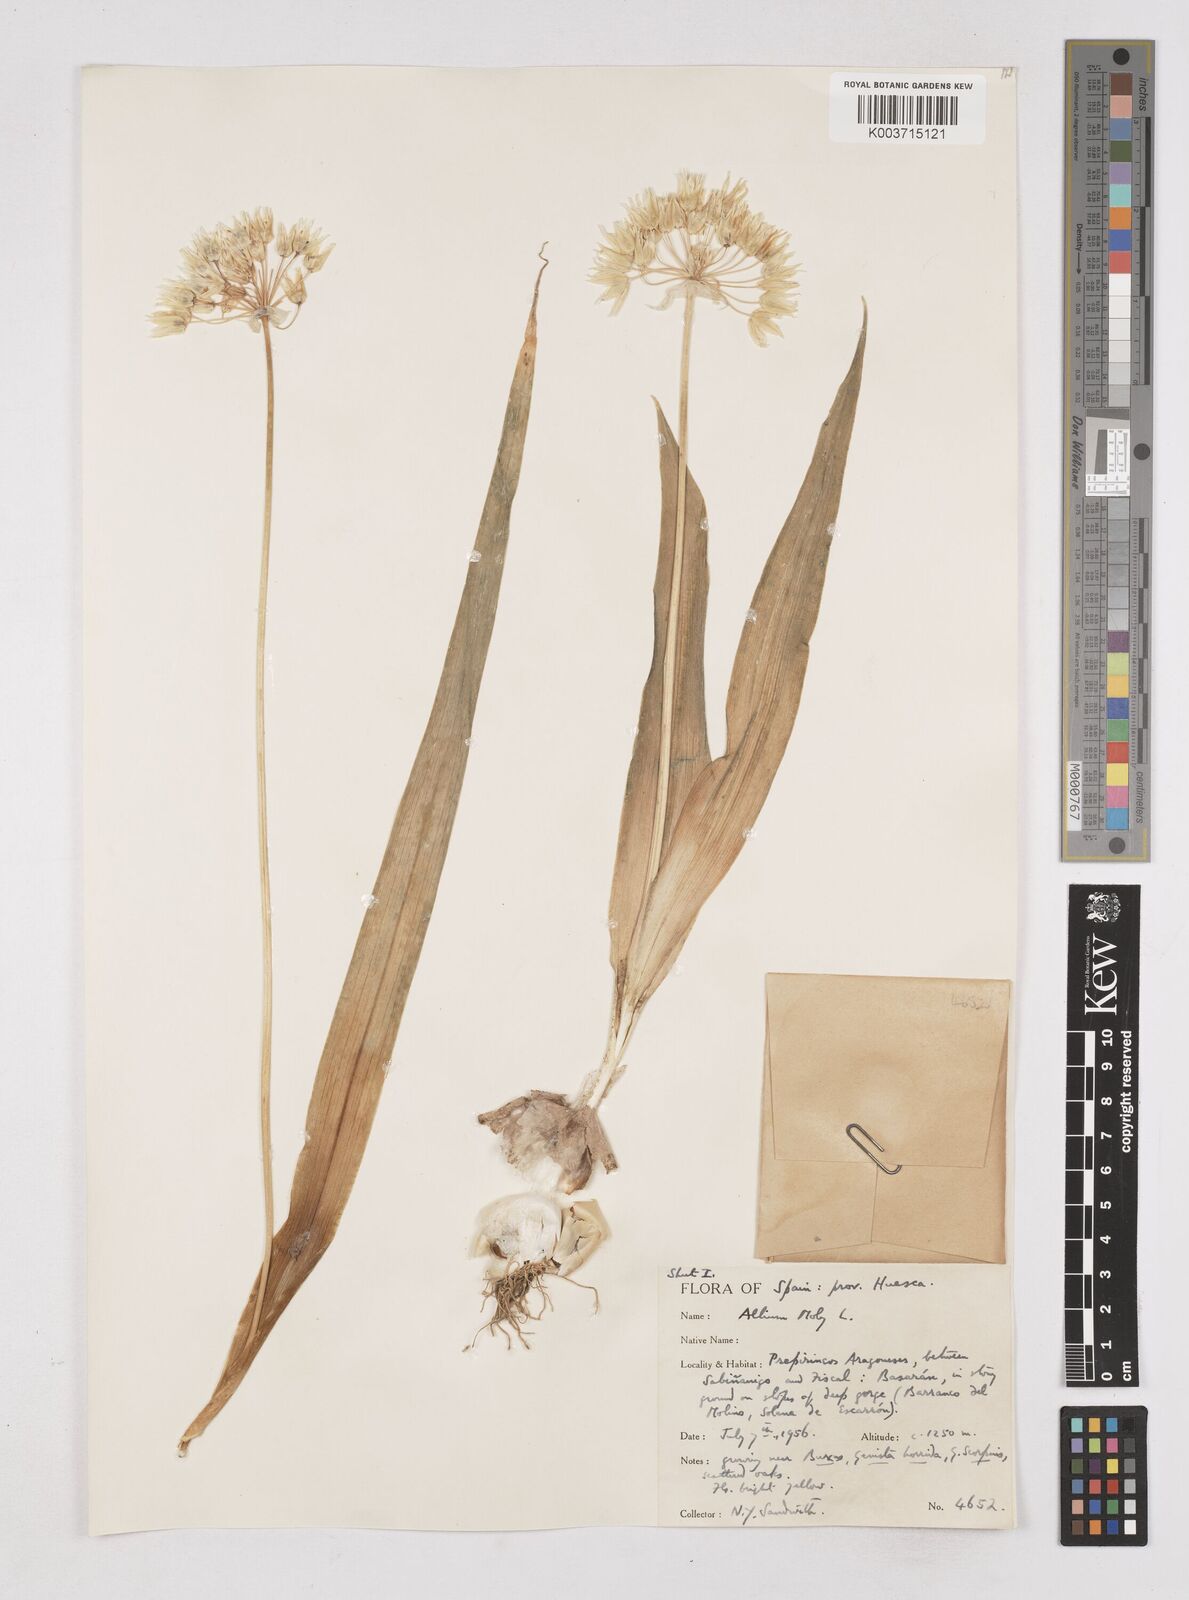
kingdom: Plantae
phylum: Tracheophyta
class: Liliopsida
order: Asparagales
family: Amaryllidaceae
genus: Allium
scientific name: Allium moly
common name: Yellow garlic
